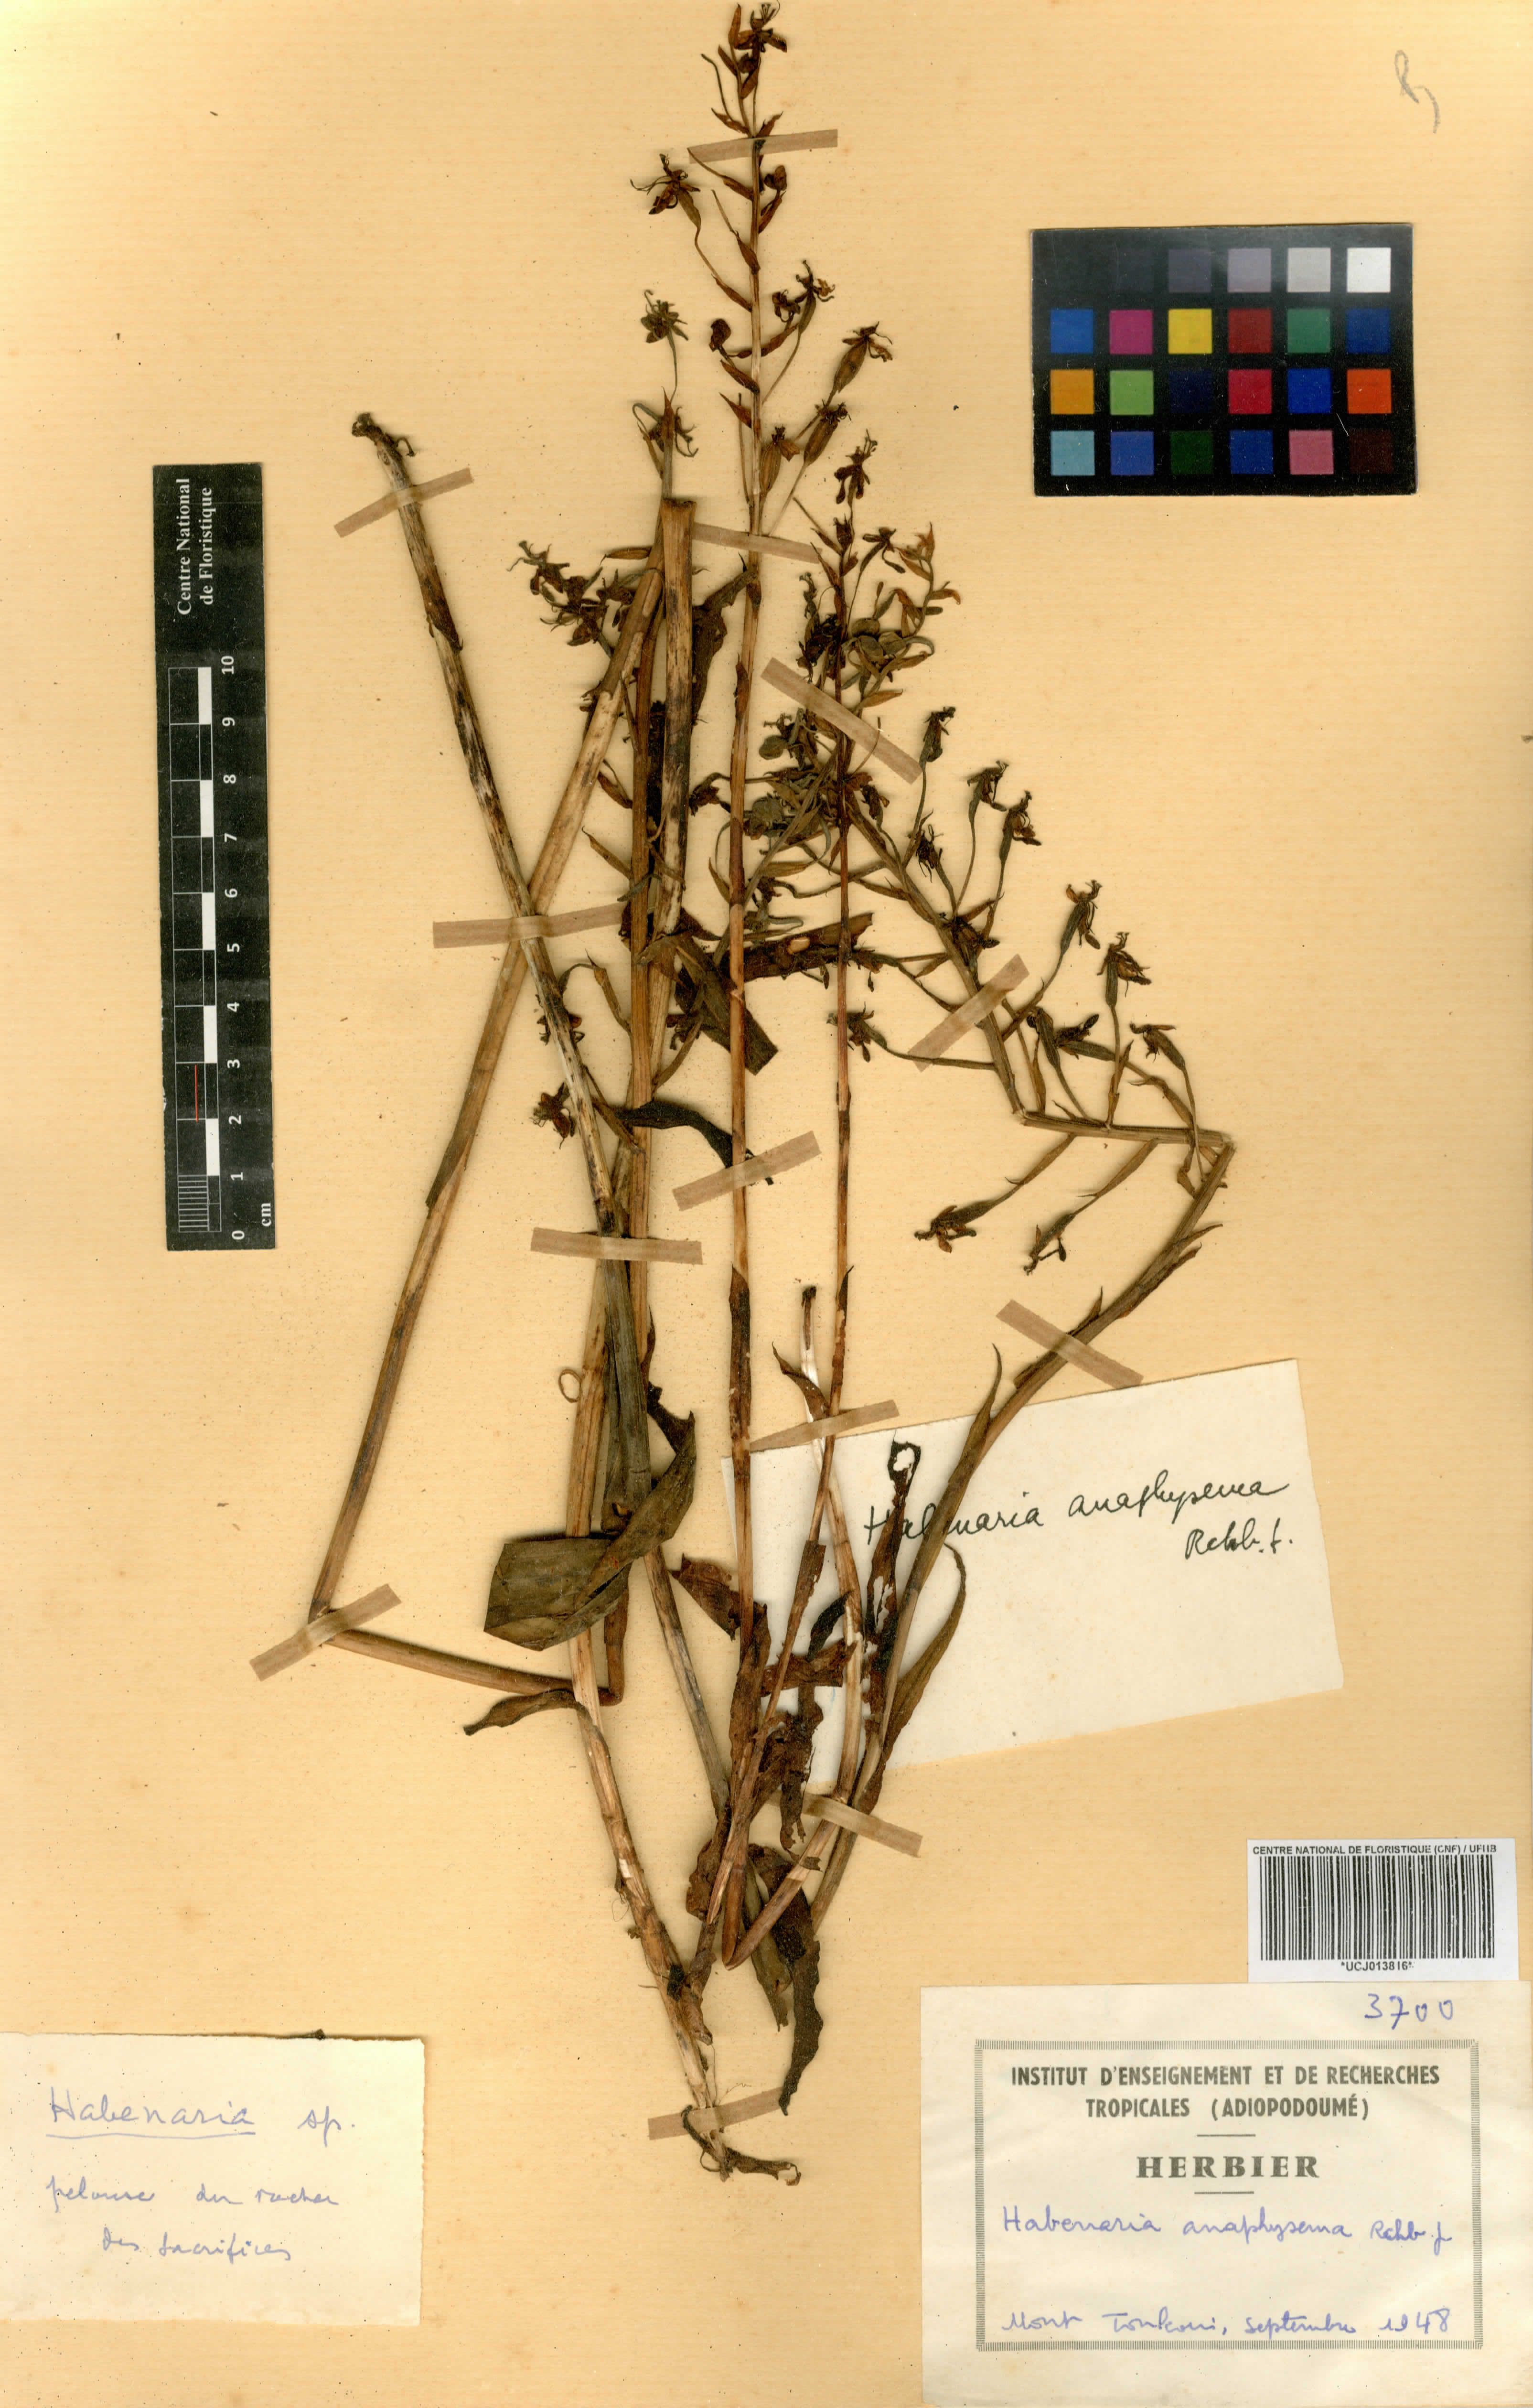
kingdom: Plantae
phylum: Tracheophyta
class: Liliopsida
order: Asparagales
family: Orchidaceae
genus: Habenaria
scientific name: Habenaria anaphysema
